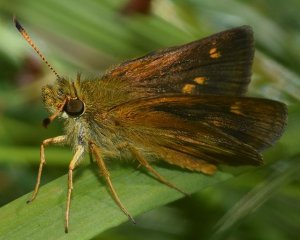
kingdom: Animalia
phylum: Arthropoda
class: Insecta
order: Lepidoptera
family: Hesperiidae
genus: Poanes
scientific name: Poanes massasoit
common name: Mulberry Wing
